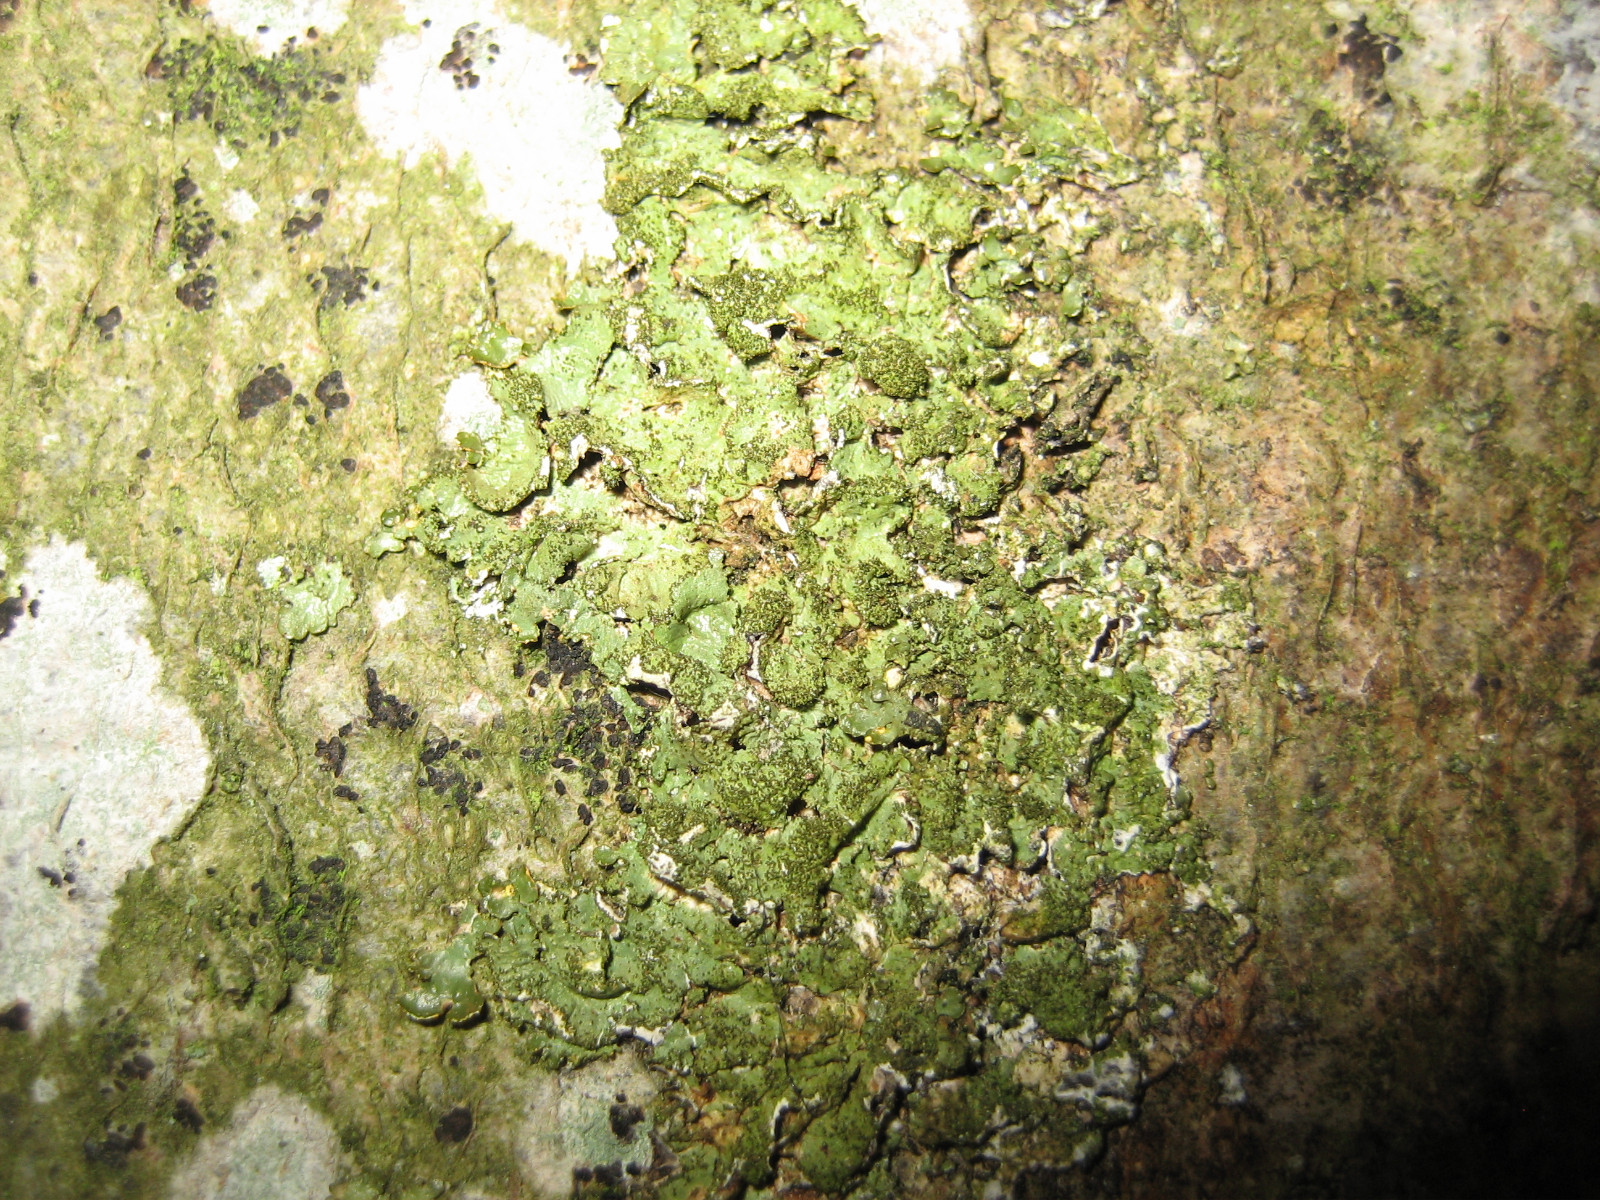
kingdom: Fungi
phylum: Ascomycota
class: Lecanoromycetes
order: Lecanorales
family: Parmeliaceae
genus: Melanelixia
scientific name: Melanelixia glabratula
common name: glinsende skållav
